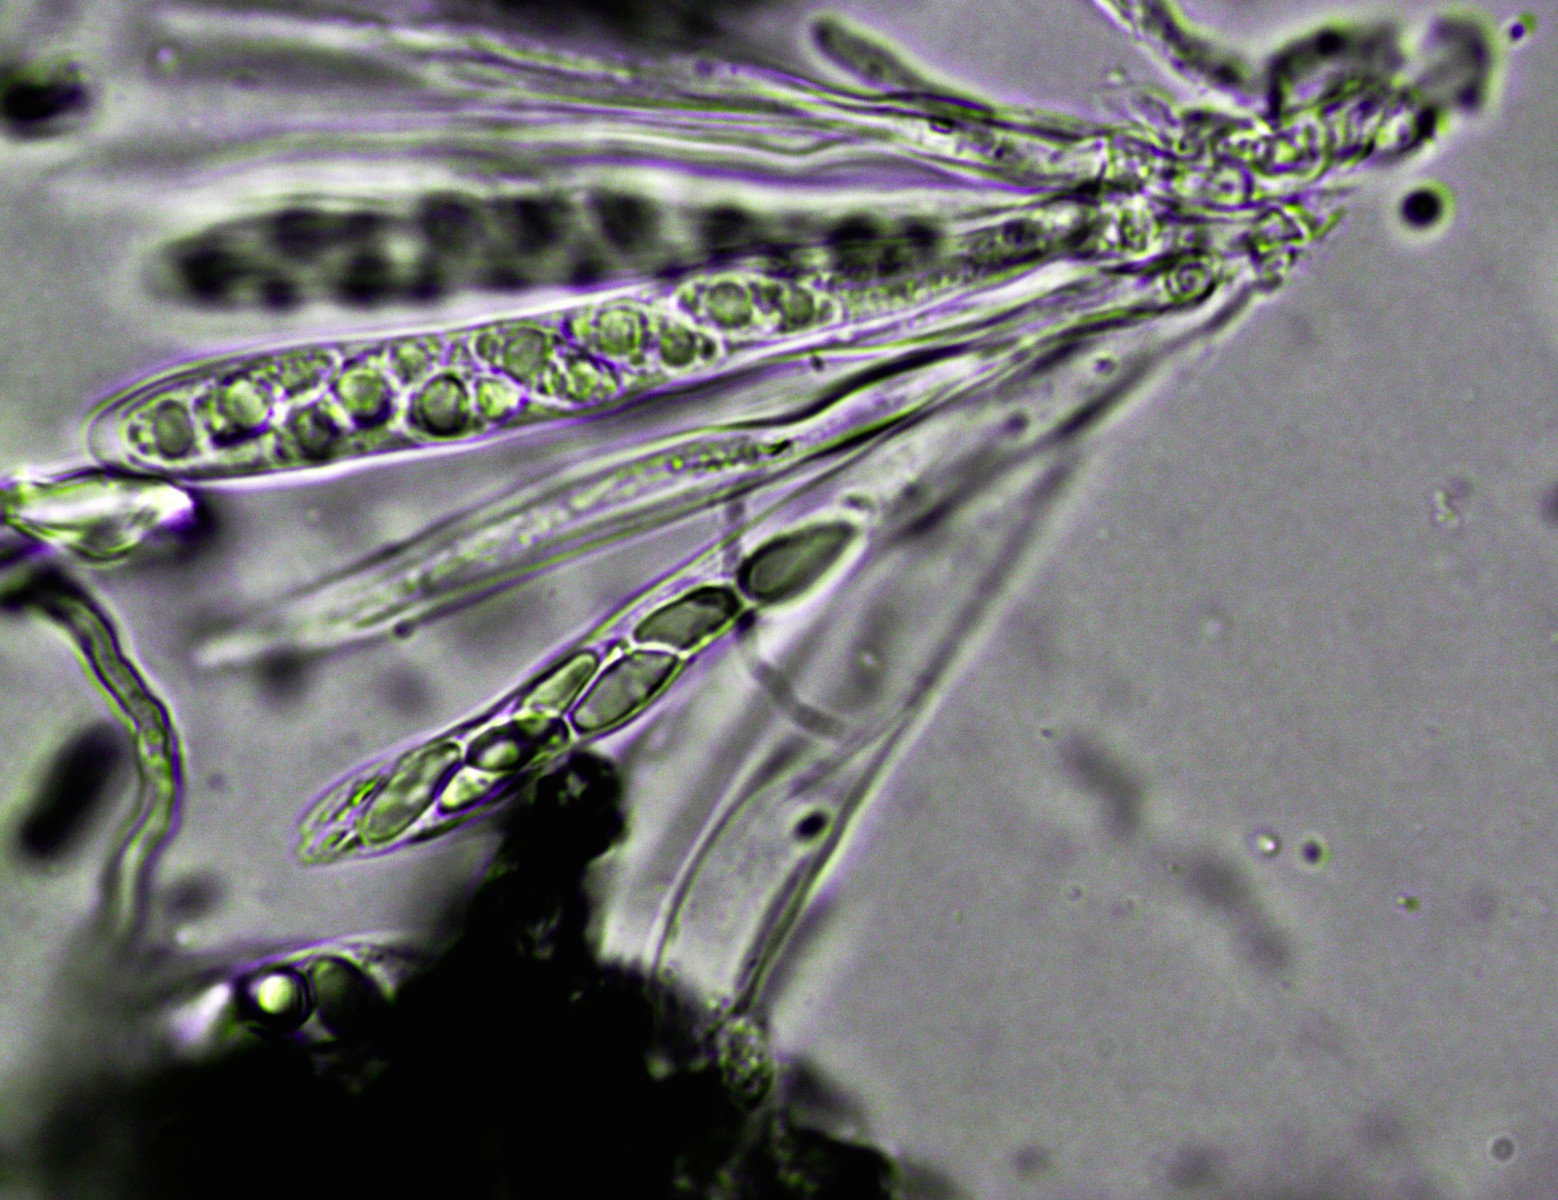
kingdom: Fungi
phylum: Ascomycota
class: Leotiomycetes
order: Helotiales
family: Cenangiaceae
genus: Trochila
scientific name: Trochila laurocerasi
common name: kirsebær-lågskive
